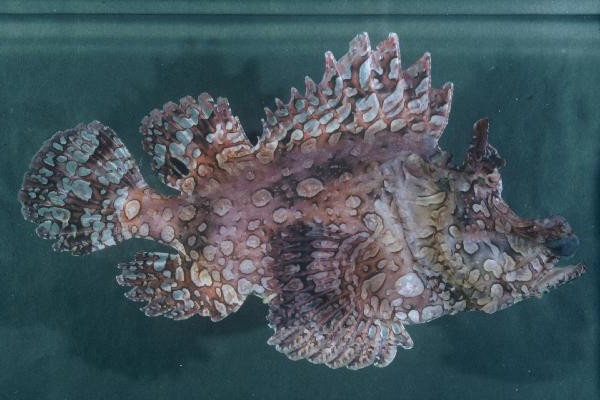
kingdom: Animalia
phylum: Chordata
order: Scorpaeniformes
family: Scorpaenidae
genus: Rhinopias
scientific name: Rhinopias frondosa
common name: Weedy scorpionfish
